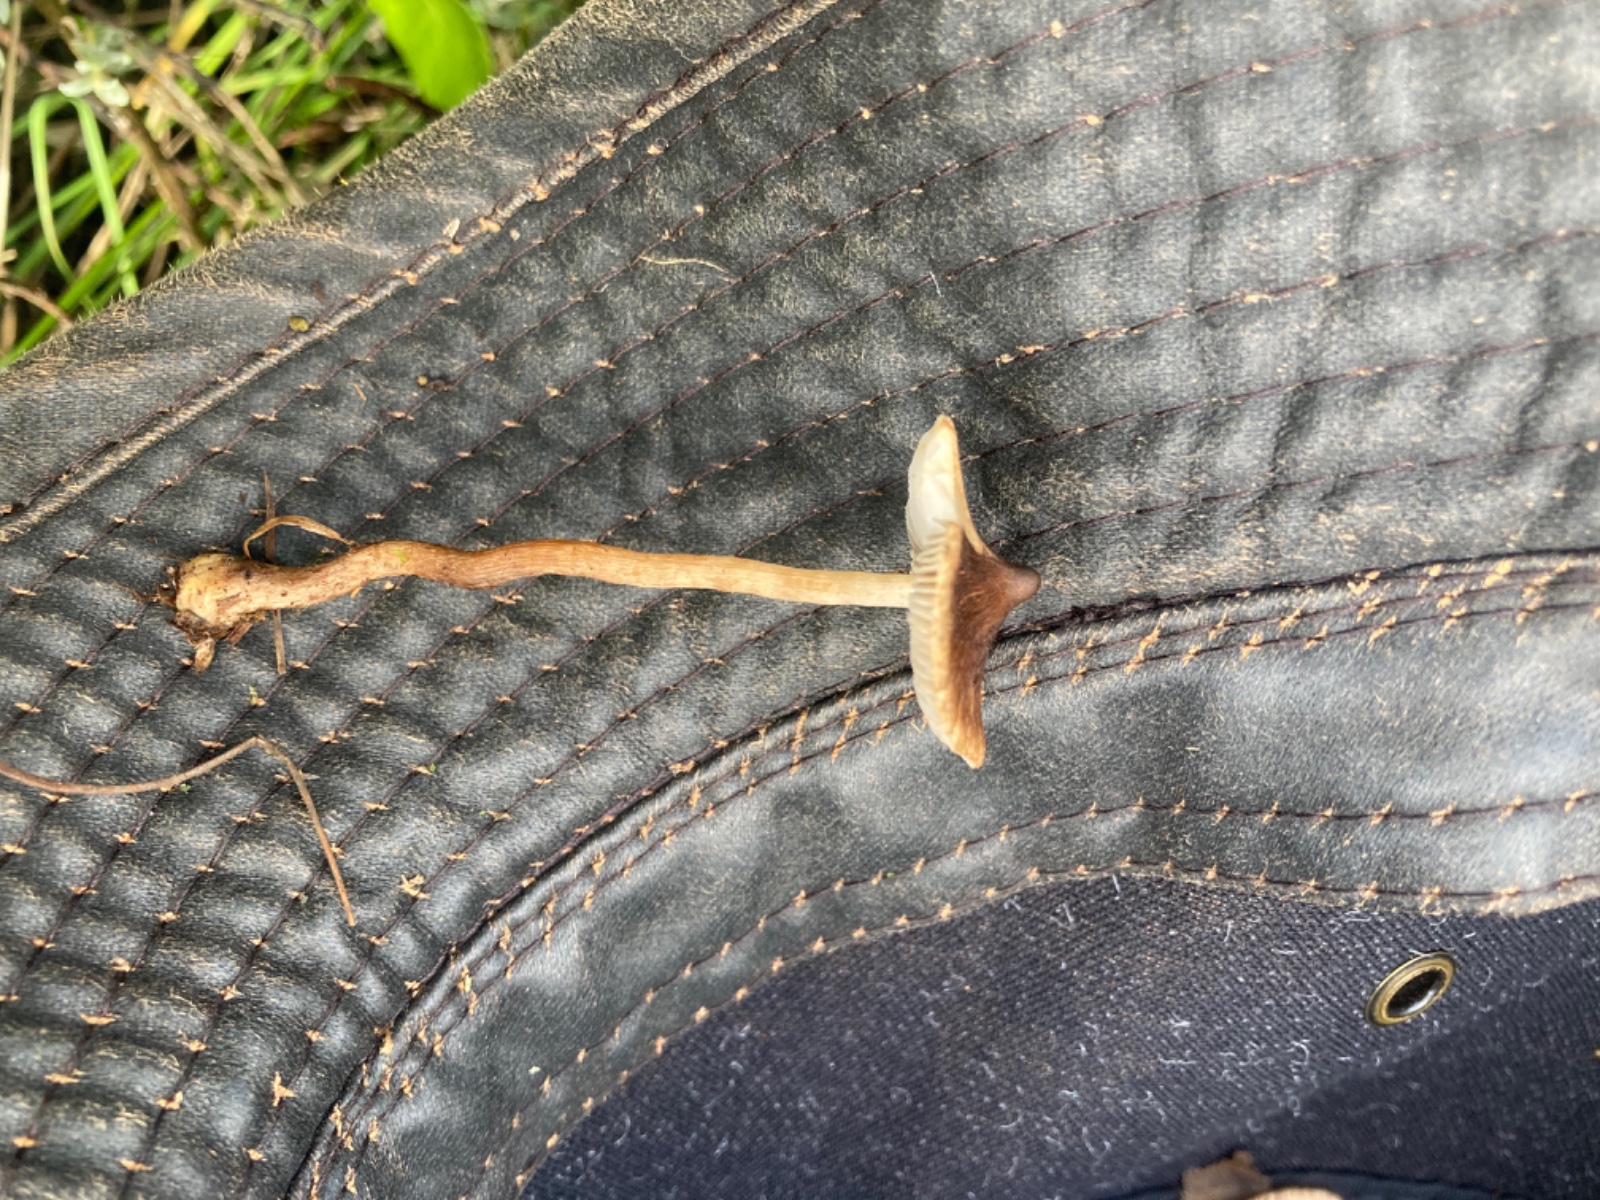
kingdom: Fungi
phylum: Basidiomycota
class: Agaricomycetes
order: Agaricales
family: Inocybaceae
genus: Inocybe
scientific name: Inocybe
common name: trævlhat
